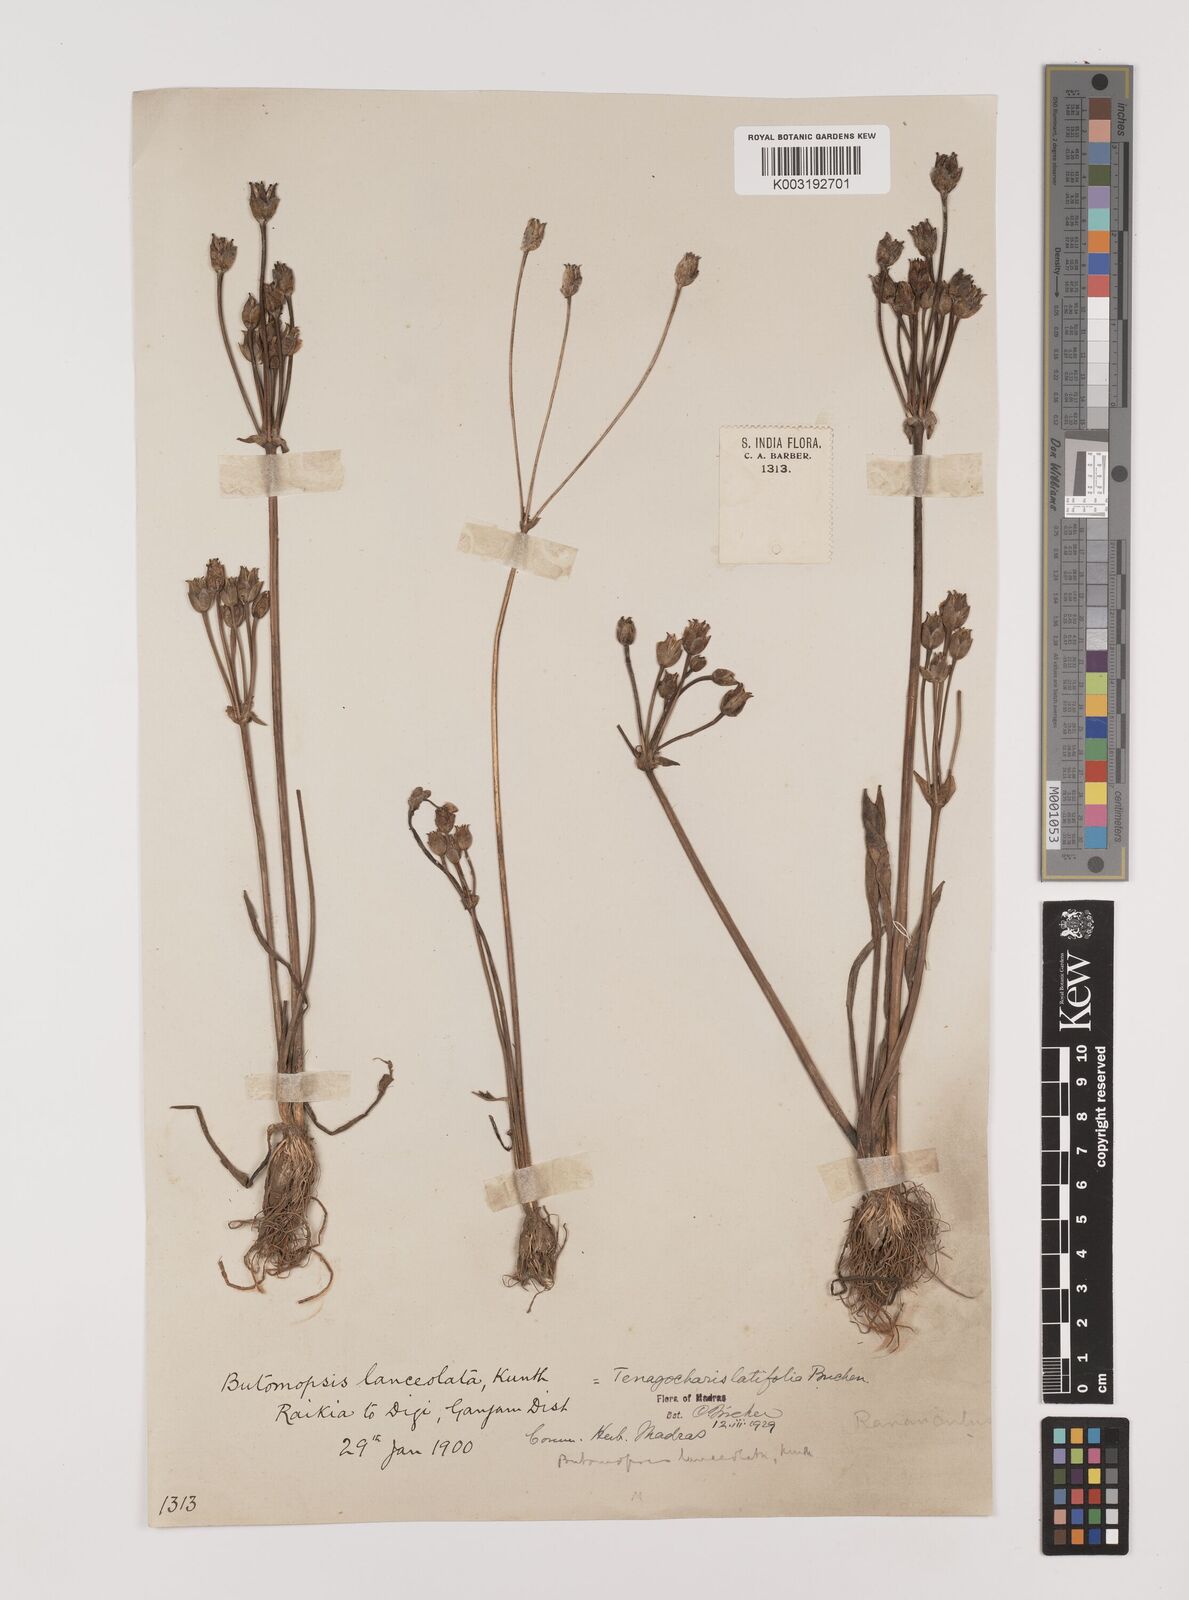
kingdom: Plantae
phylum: Tracheophyta
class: Liliopsida
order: Alismatales
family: Alismataceae
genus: Butomopsis
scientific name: Butomopsis latifolia
